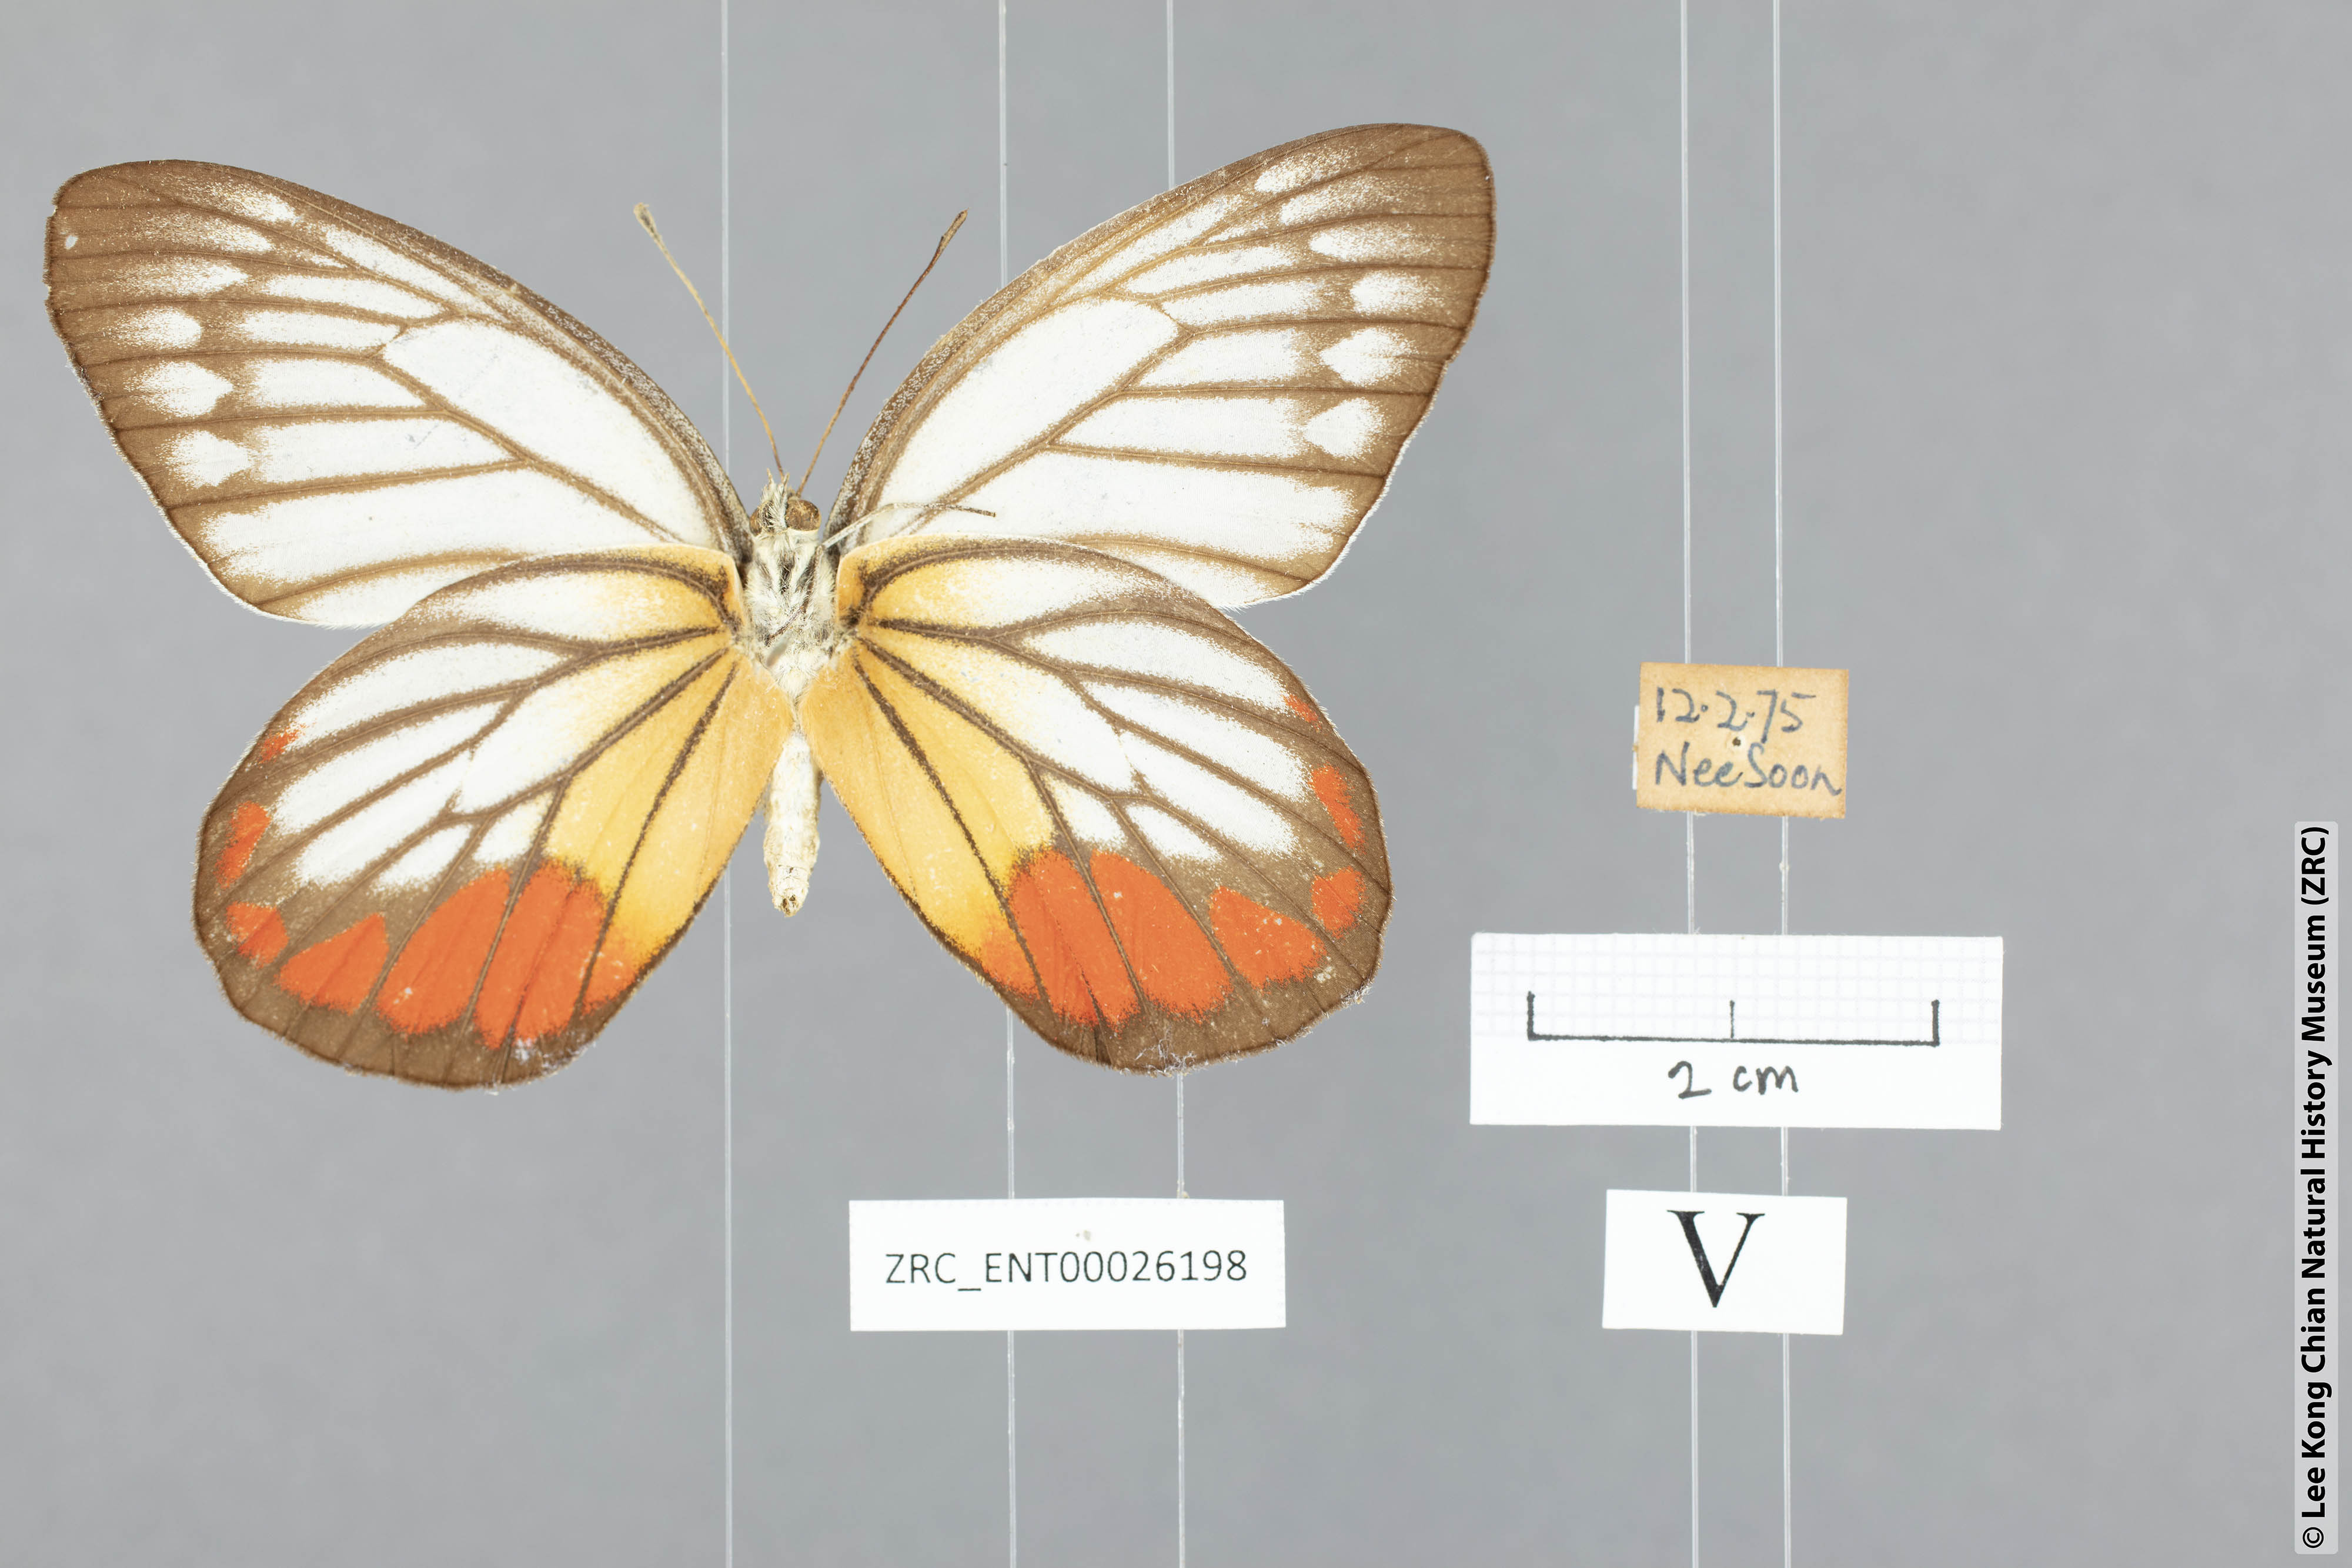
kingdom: Animalia
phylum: Arthropoda
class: Insecta
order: Lepidoptera
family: Pieridae
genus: Delias
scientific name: Delias hyparete
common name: Painted jezebel
